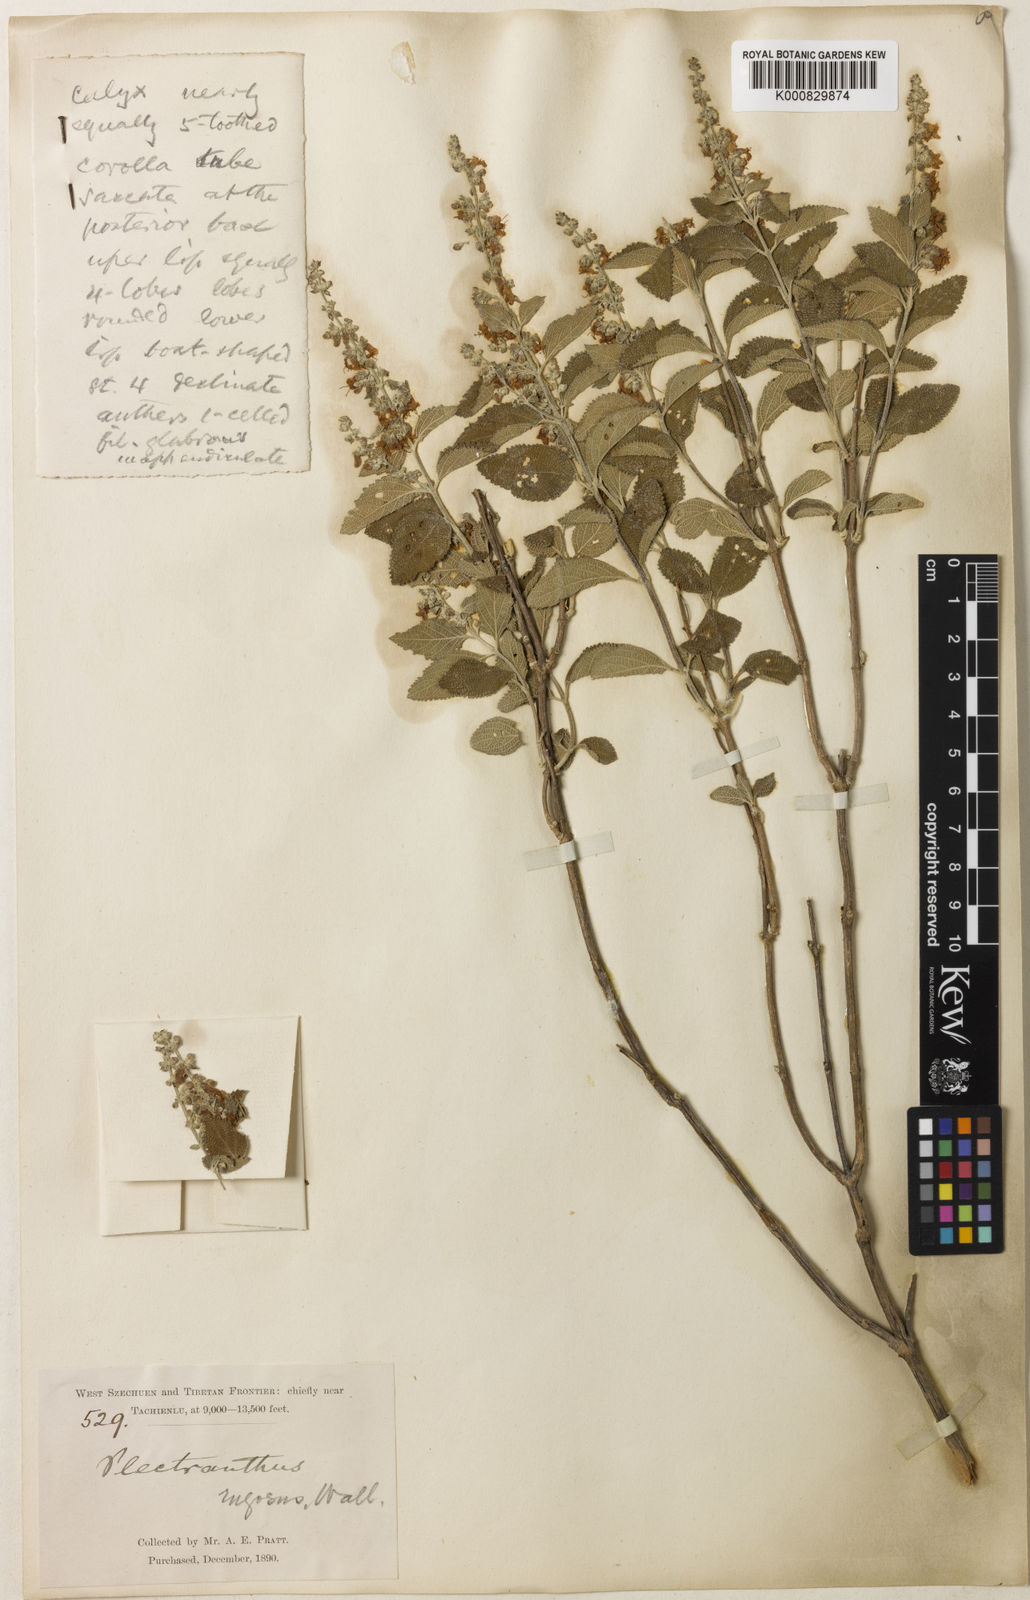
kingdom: Plantae
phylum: Tracheophyta
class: Magnoliopsida
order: Lamiales
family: Lamiaceae
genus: Isodon
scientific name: Isodon rugosus
